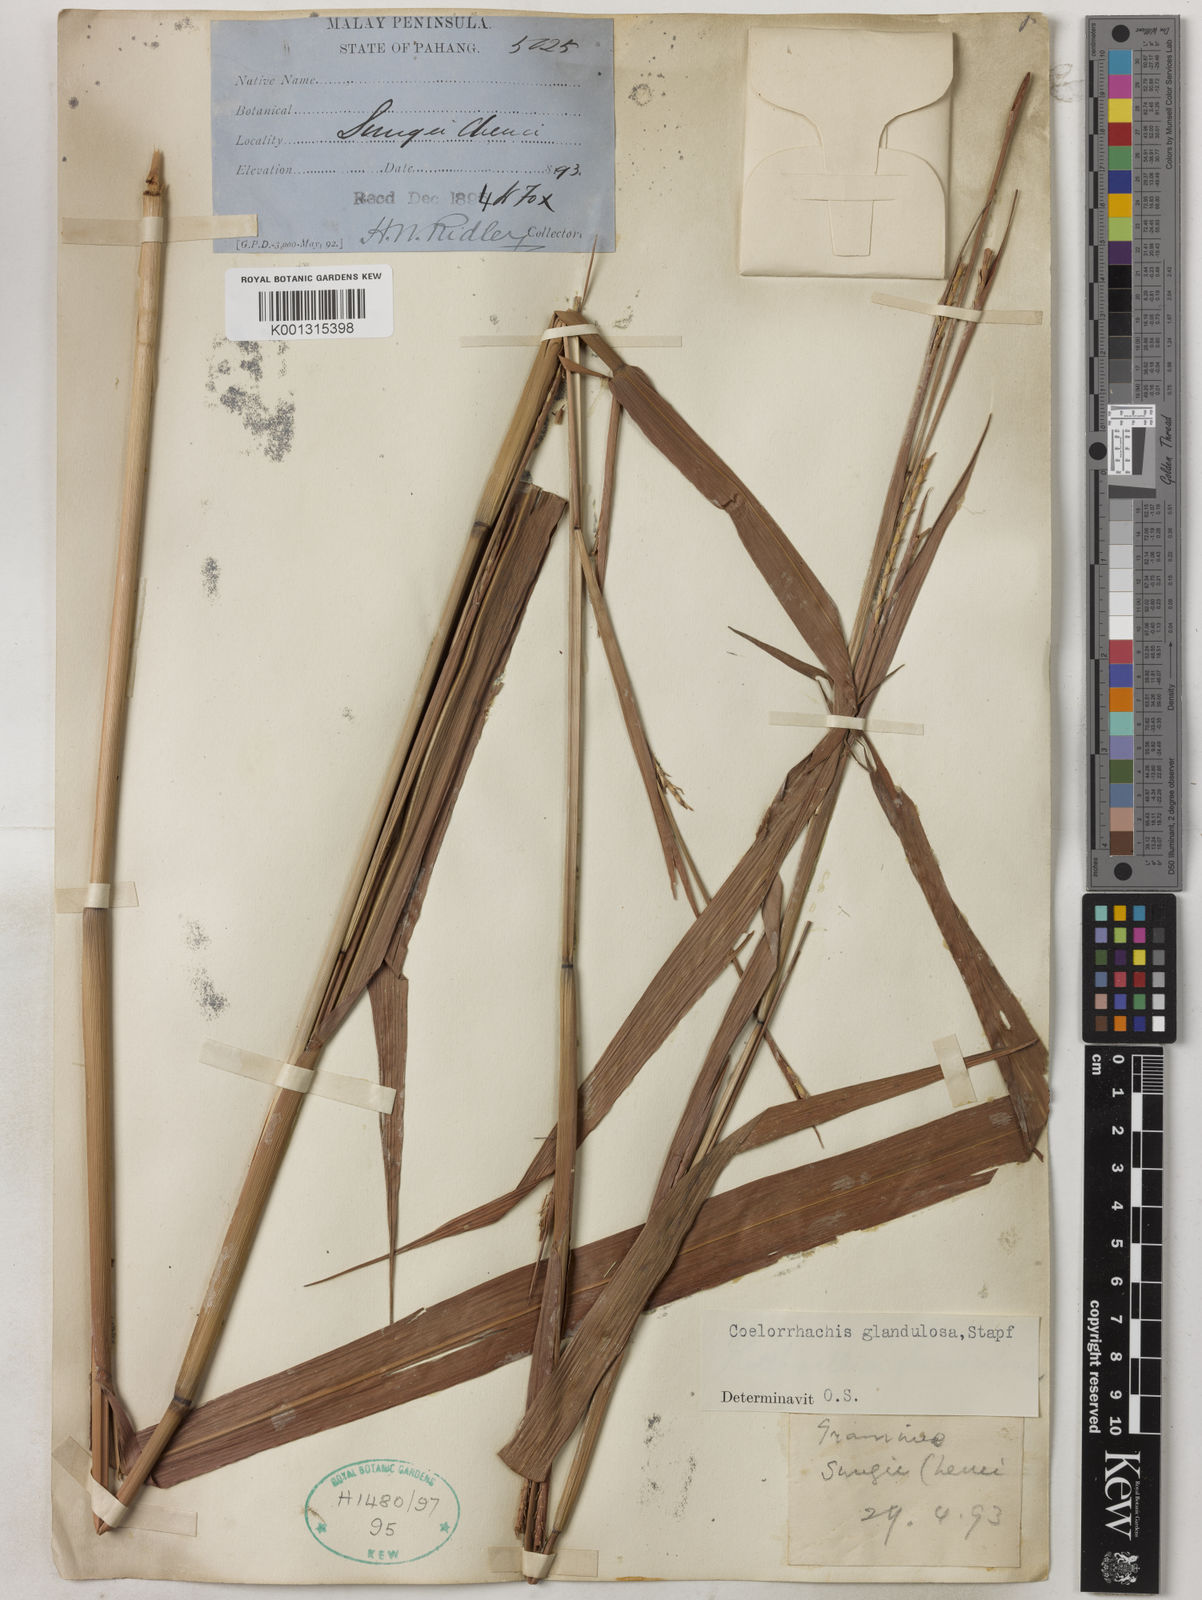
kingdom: Plantae
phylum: Tracheophyta
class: Liliopsida
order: Poales
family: Poaceae
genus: Rottboellia
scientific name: Rottboellia glandulosa
